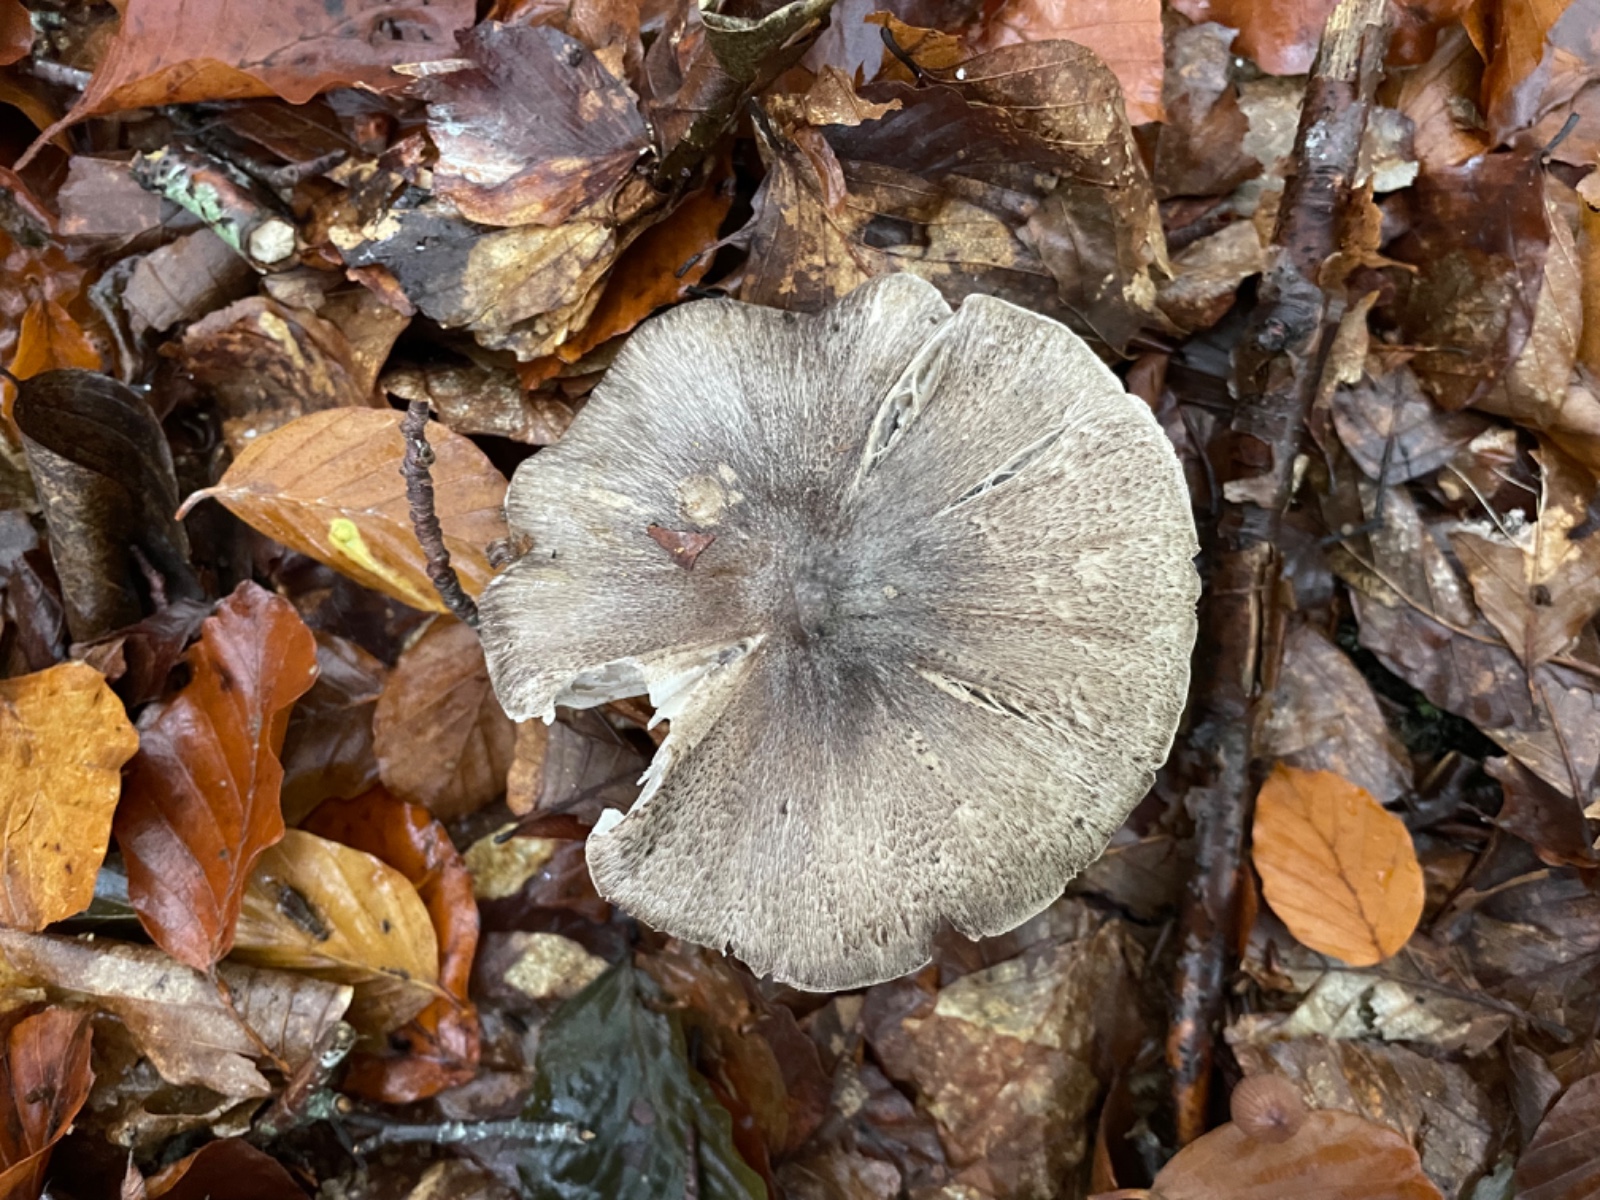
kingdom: Fungi
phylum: Basidiomycota
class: Agaricomycetes
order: Agaricales
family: Tricholomataceae
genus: Tricholoma
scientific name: Tricholoma sciodes
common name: stribet ridderhat
